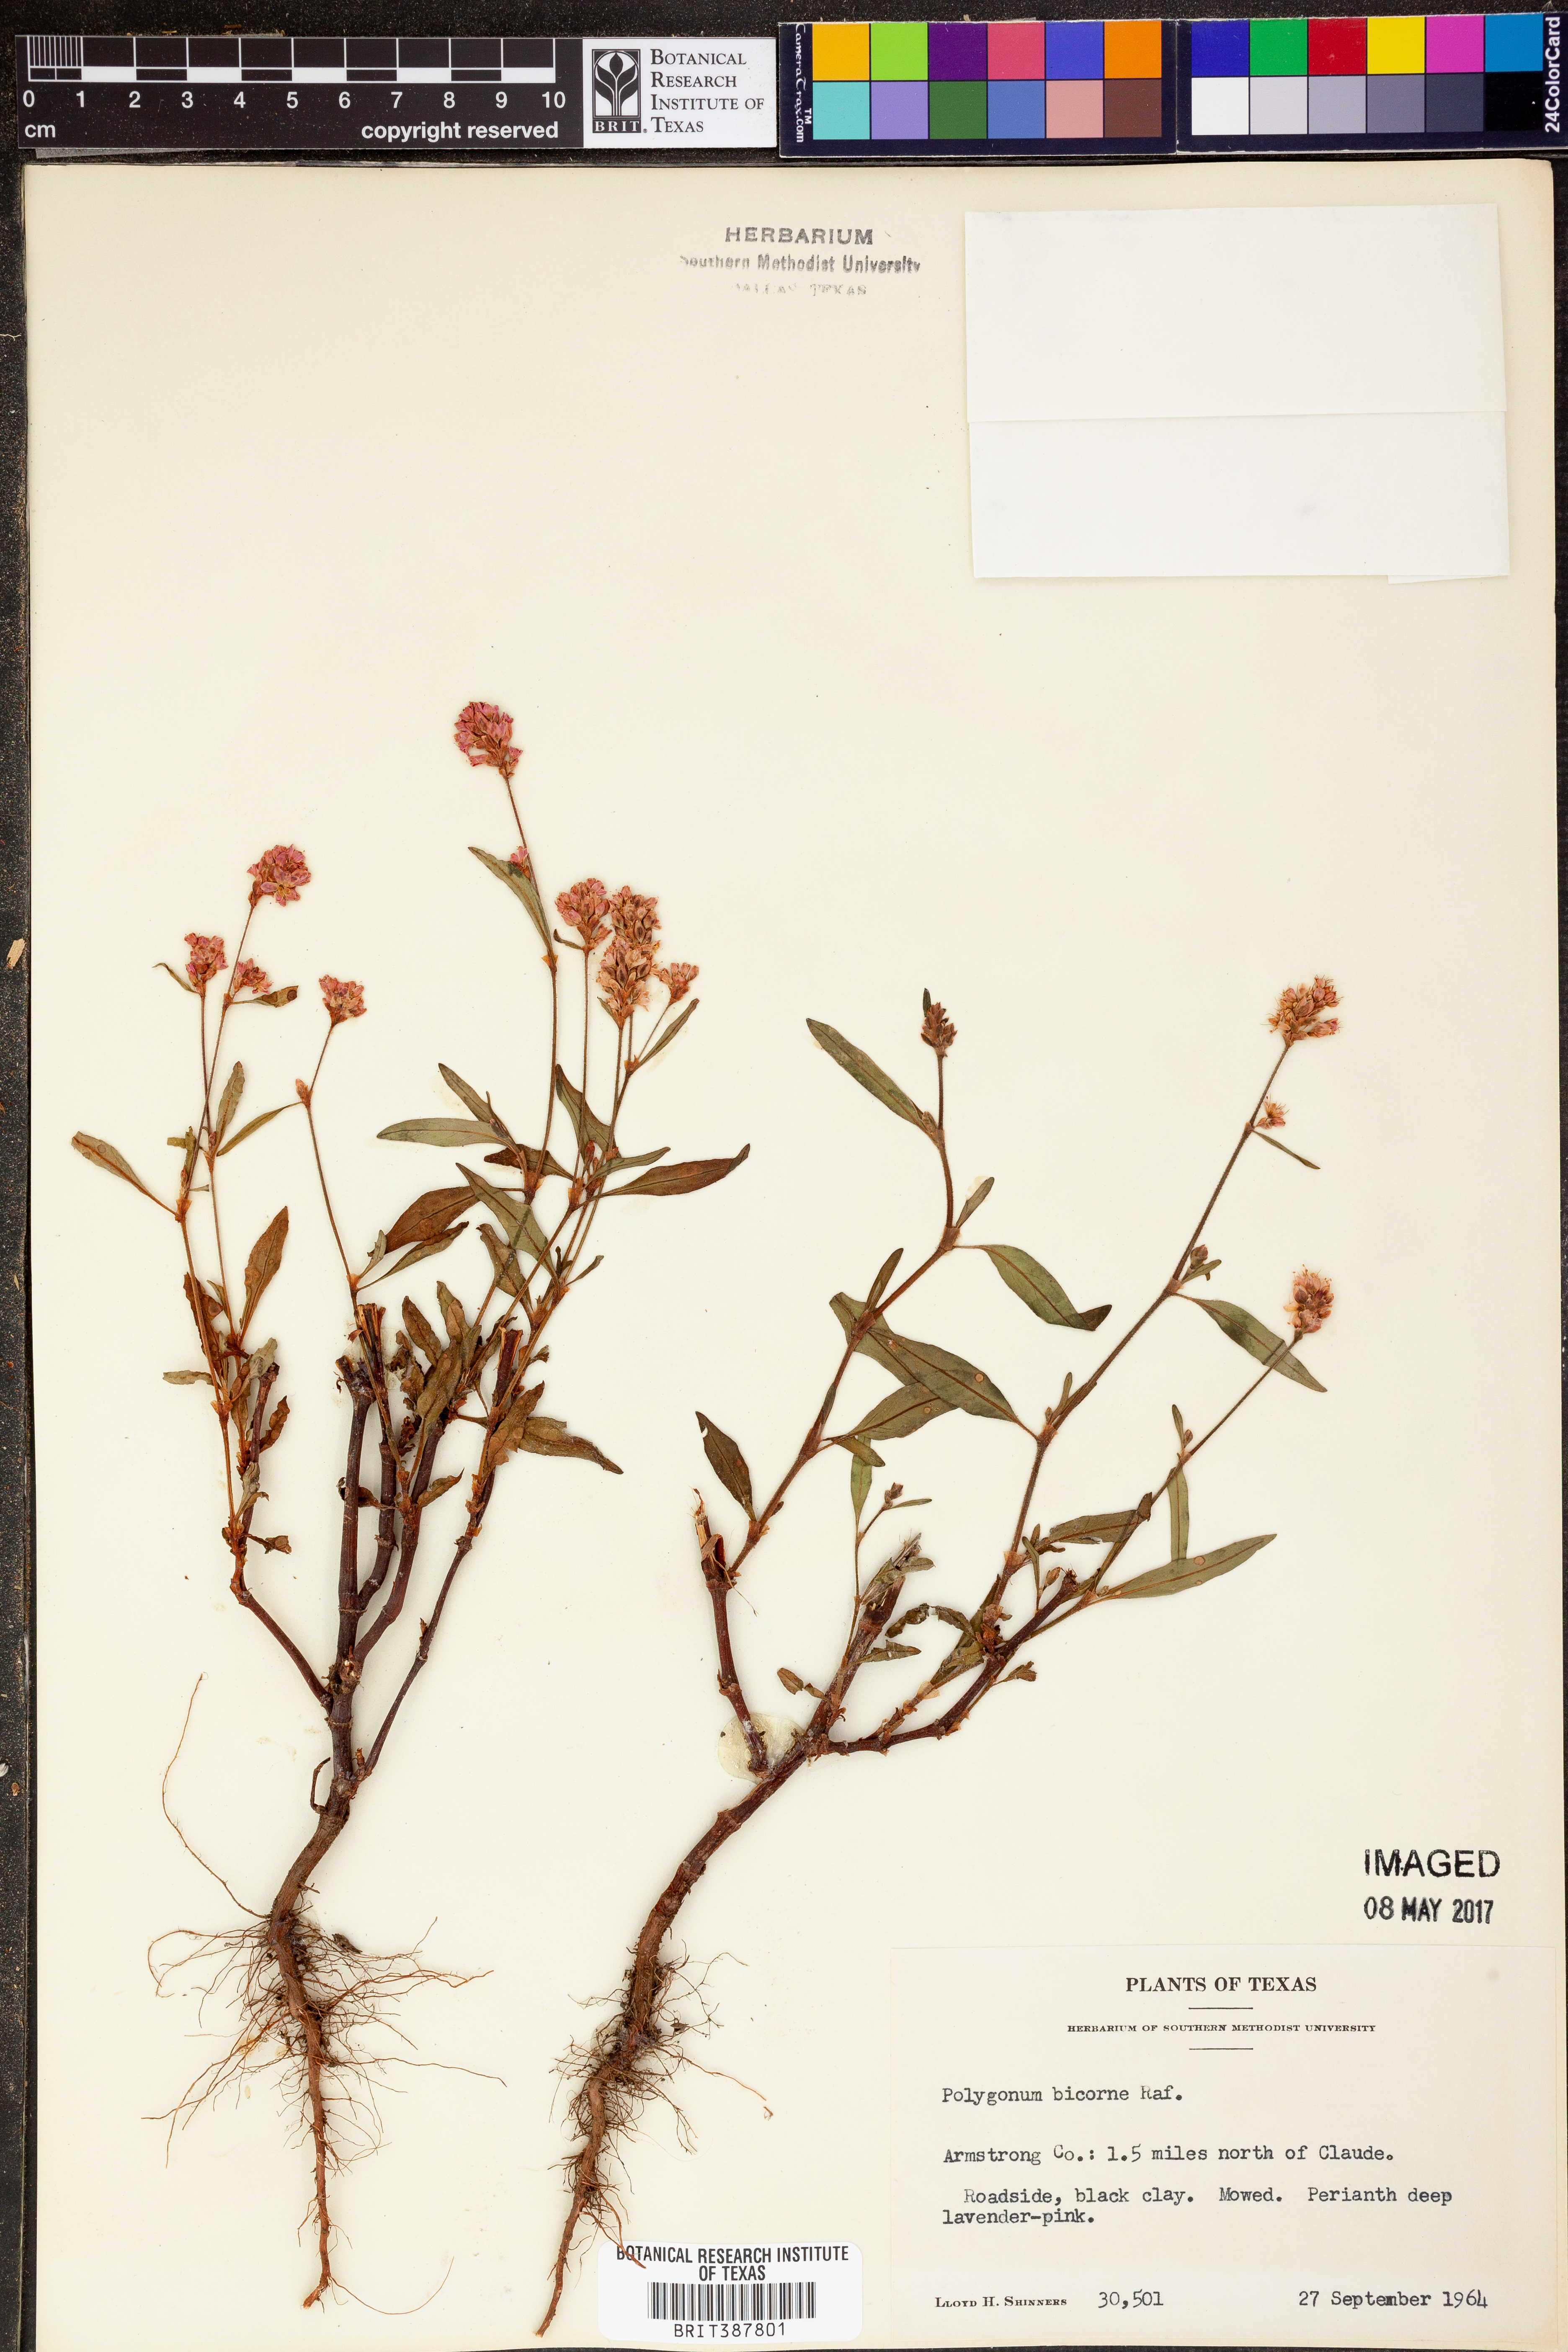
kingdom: Plantae
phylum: Tracheophyta
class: Magnoliopsida
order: Caryophyllales
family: Polygonaceae
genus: Persicaria
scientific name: Persicaria bicornis
